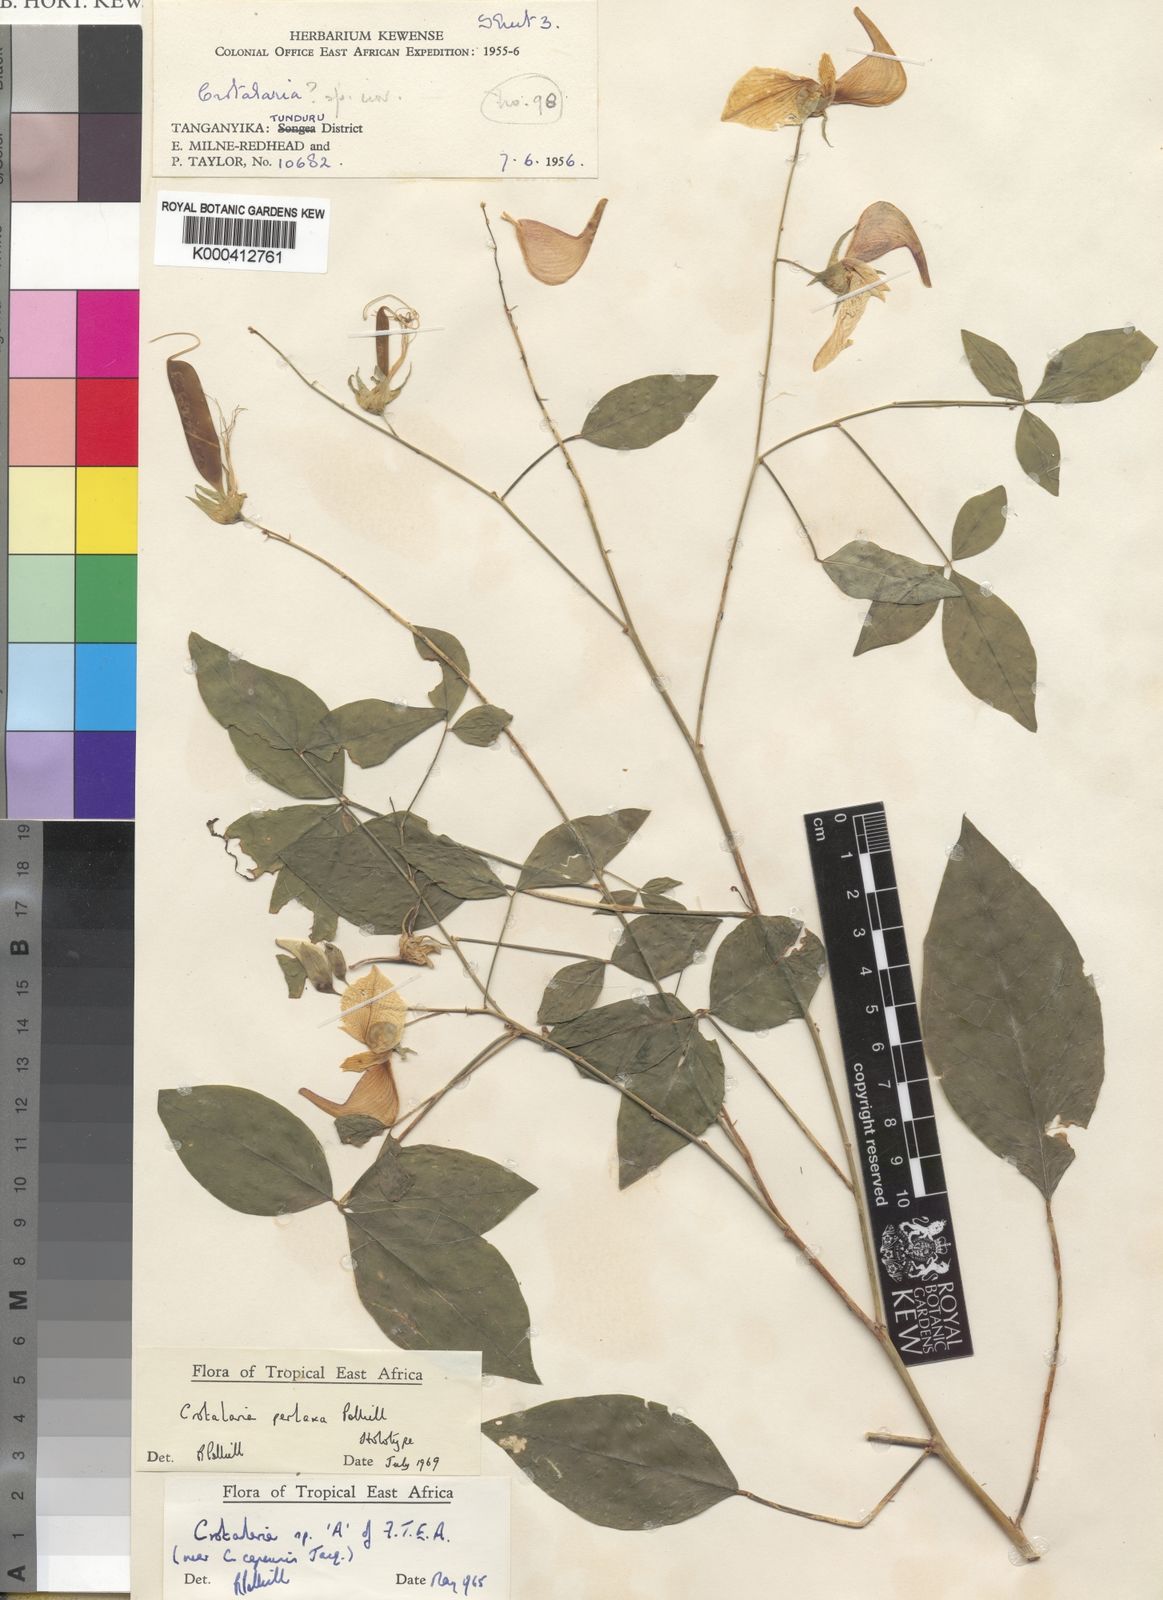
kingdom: Plantae
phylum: Tracheophyta
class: Magnoliopsida
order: Fabales
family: Fabaceae
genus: Crotalaria
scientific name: Crotalaria perlaxa
